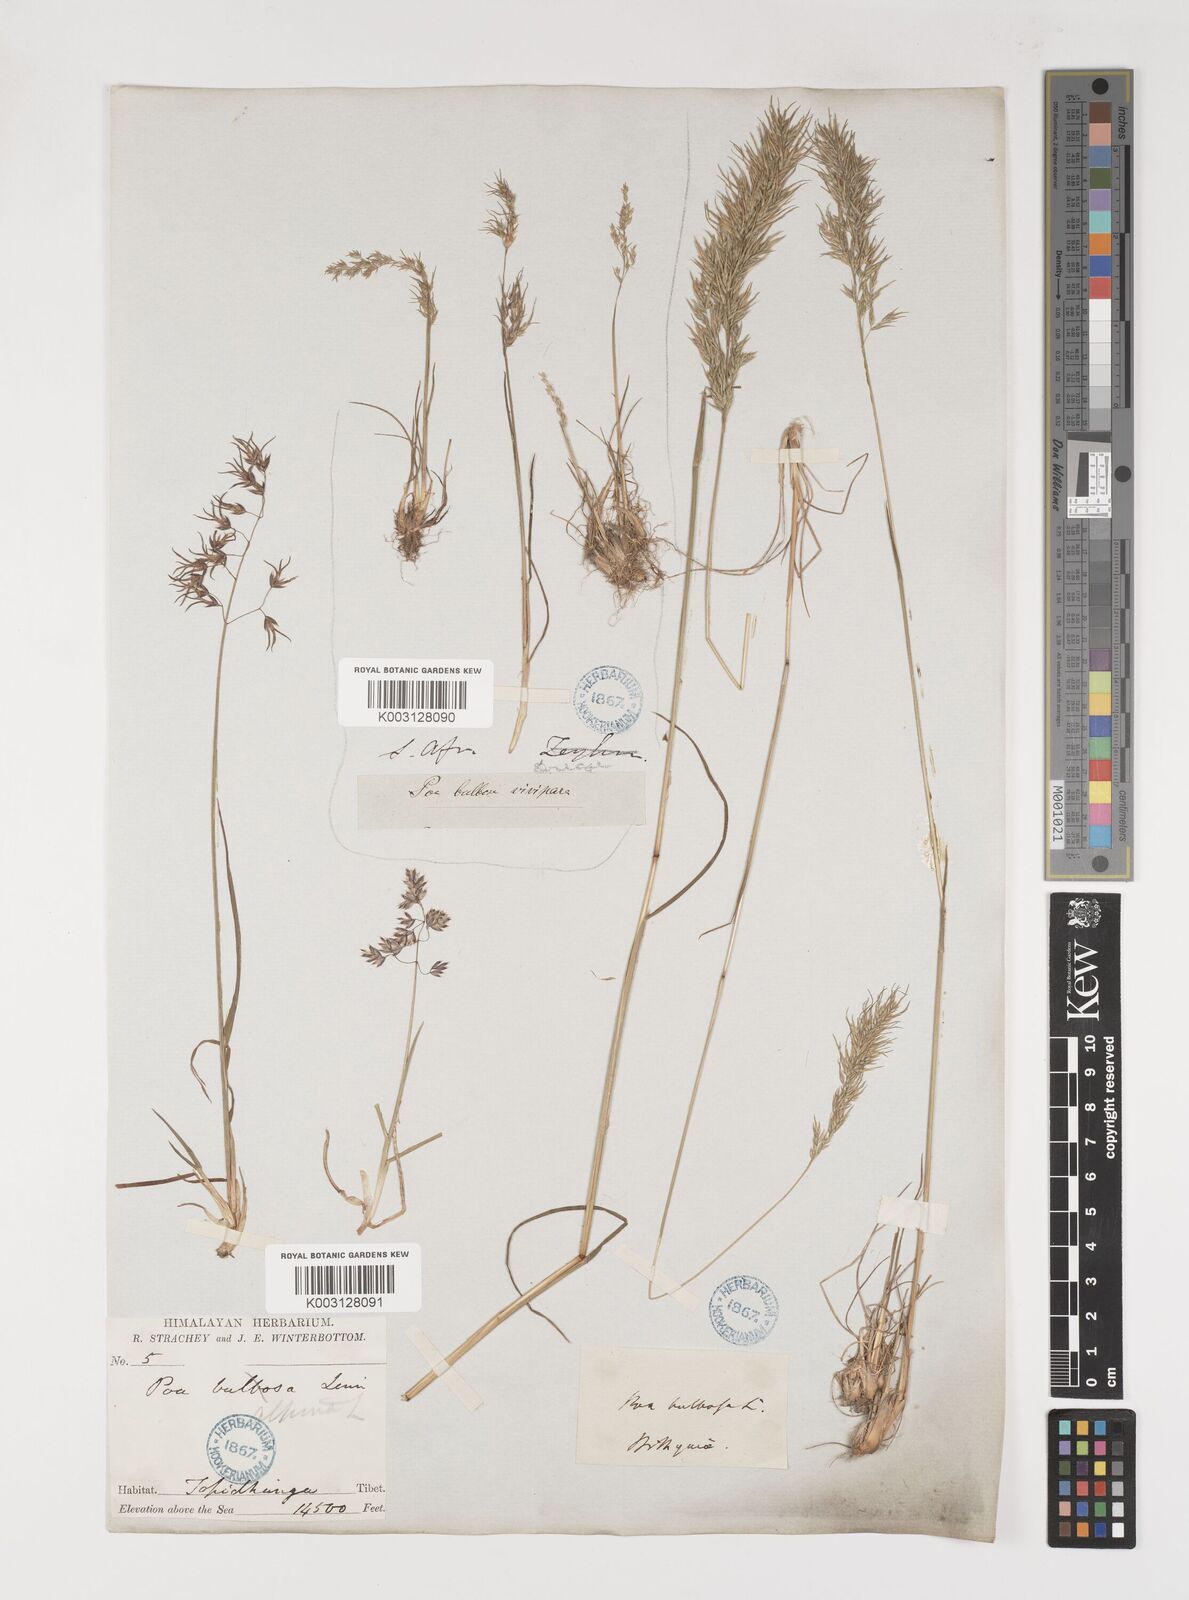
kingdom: Plantae
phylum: Tracheophyta
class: Liliopsida
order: Poales
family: Poaceae
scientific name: Poaceae
